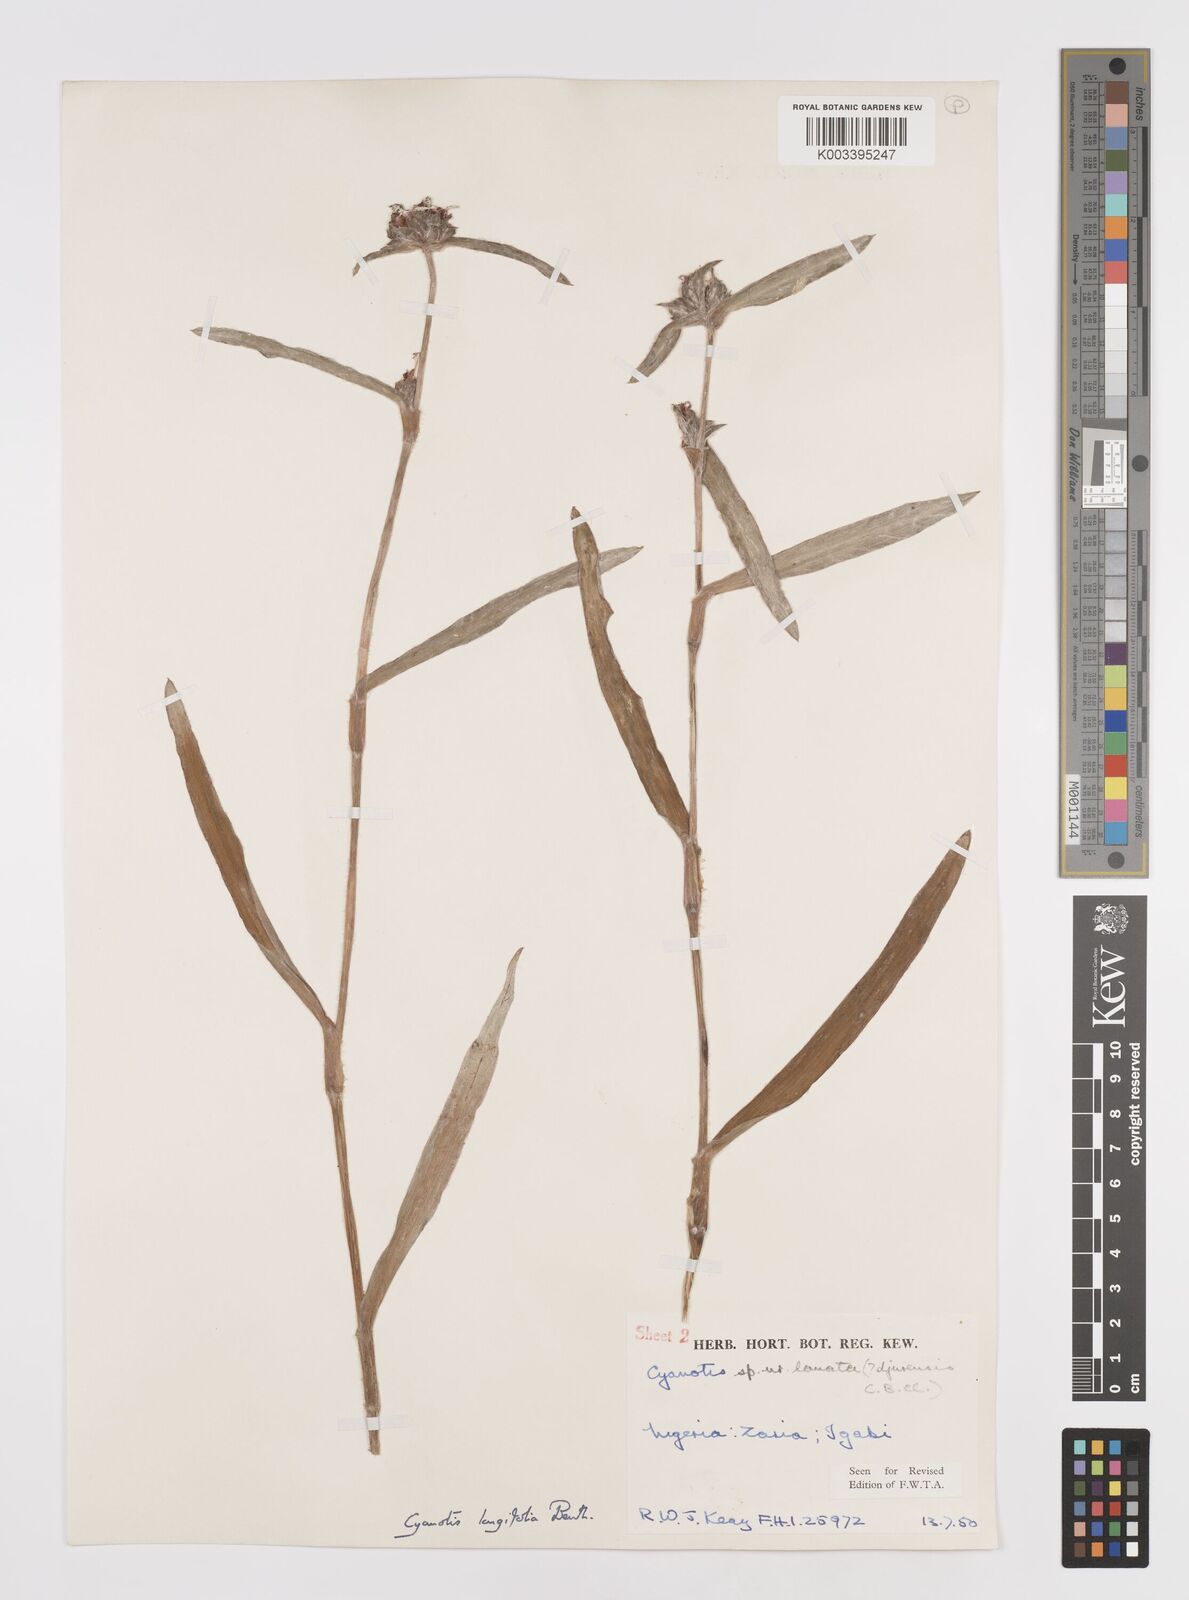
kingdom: Plantae
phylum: Tracheophyta
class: Liliopsida
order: Commelinales
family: Commelinaceae
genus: Cyanotis
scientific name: Cyanotis
